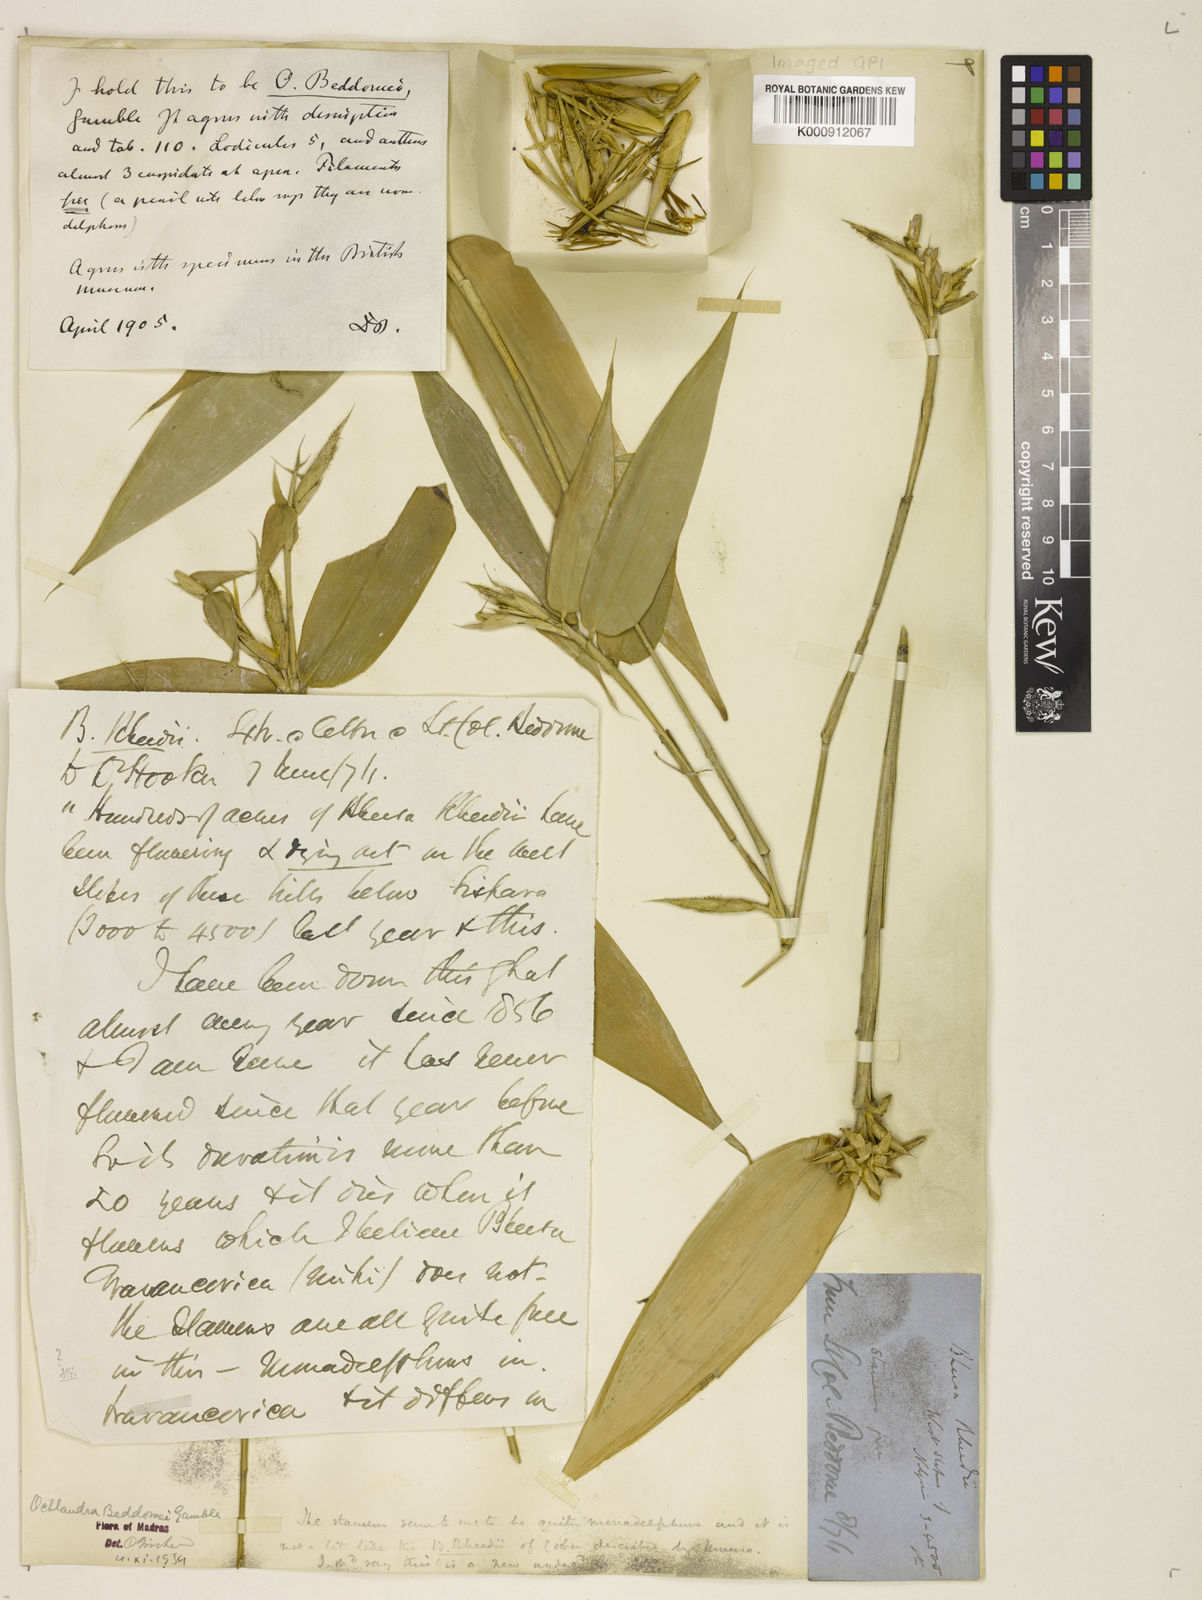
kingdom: Plantae
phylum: Tracheophyta
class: Liliopsida
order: Poales
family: Poaceae
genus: Ochlandra
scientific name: Ochlandra beddomei
